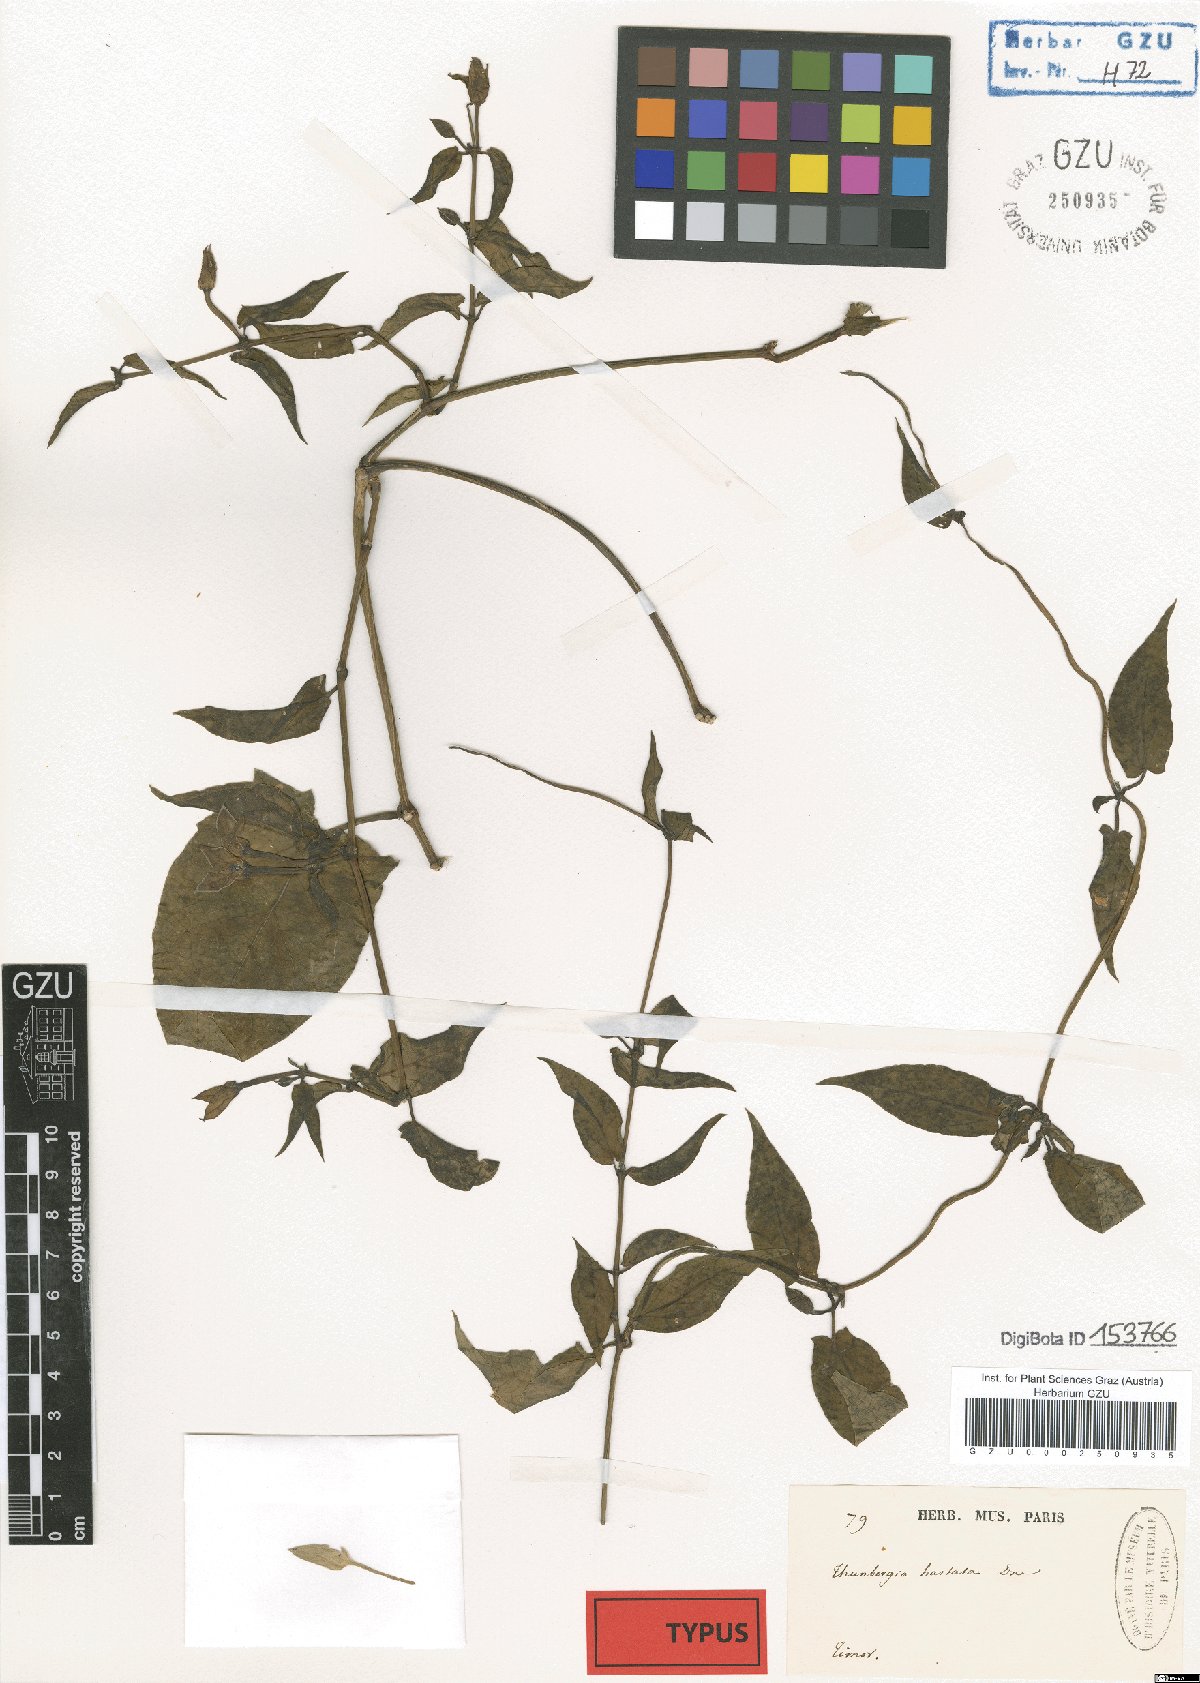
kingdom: Plantae
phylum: Tracheophyta
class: Magnoliopsida
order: Lamiales
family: Acanthaceae
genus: Thunbergia
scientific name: Thunbergia hastata
